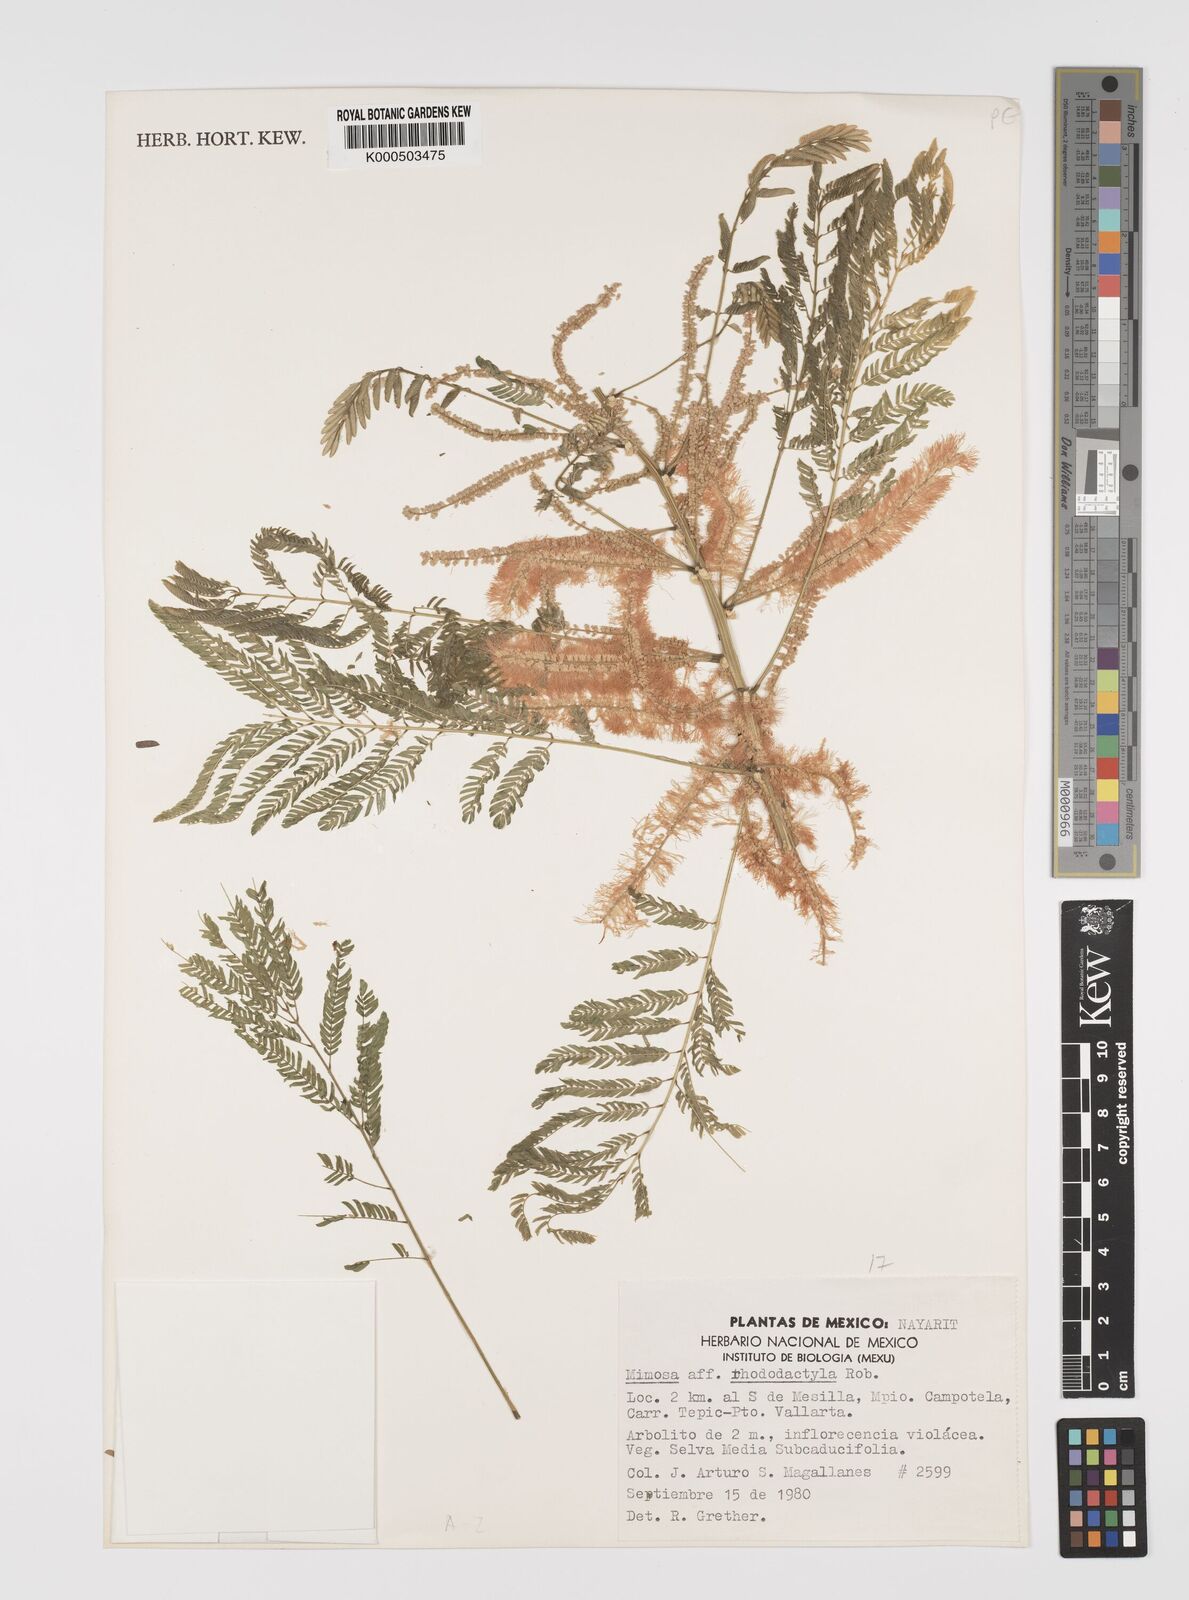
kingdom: Plantae
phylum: Tracheophyta
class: Magnoliopsida
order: Fabales
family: Fabaceae
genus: Mimosa
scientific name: Mimosa rhododactyla
